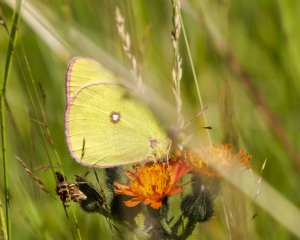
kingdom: Animalia
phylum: Arthropoda
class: Insecta
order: Lepidoptera
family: Pieridae
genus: Colias
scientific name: Colias interior
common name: Pink-edged Sulphur
